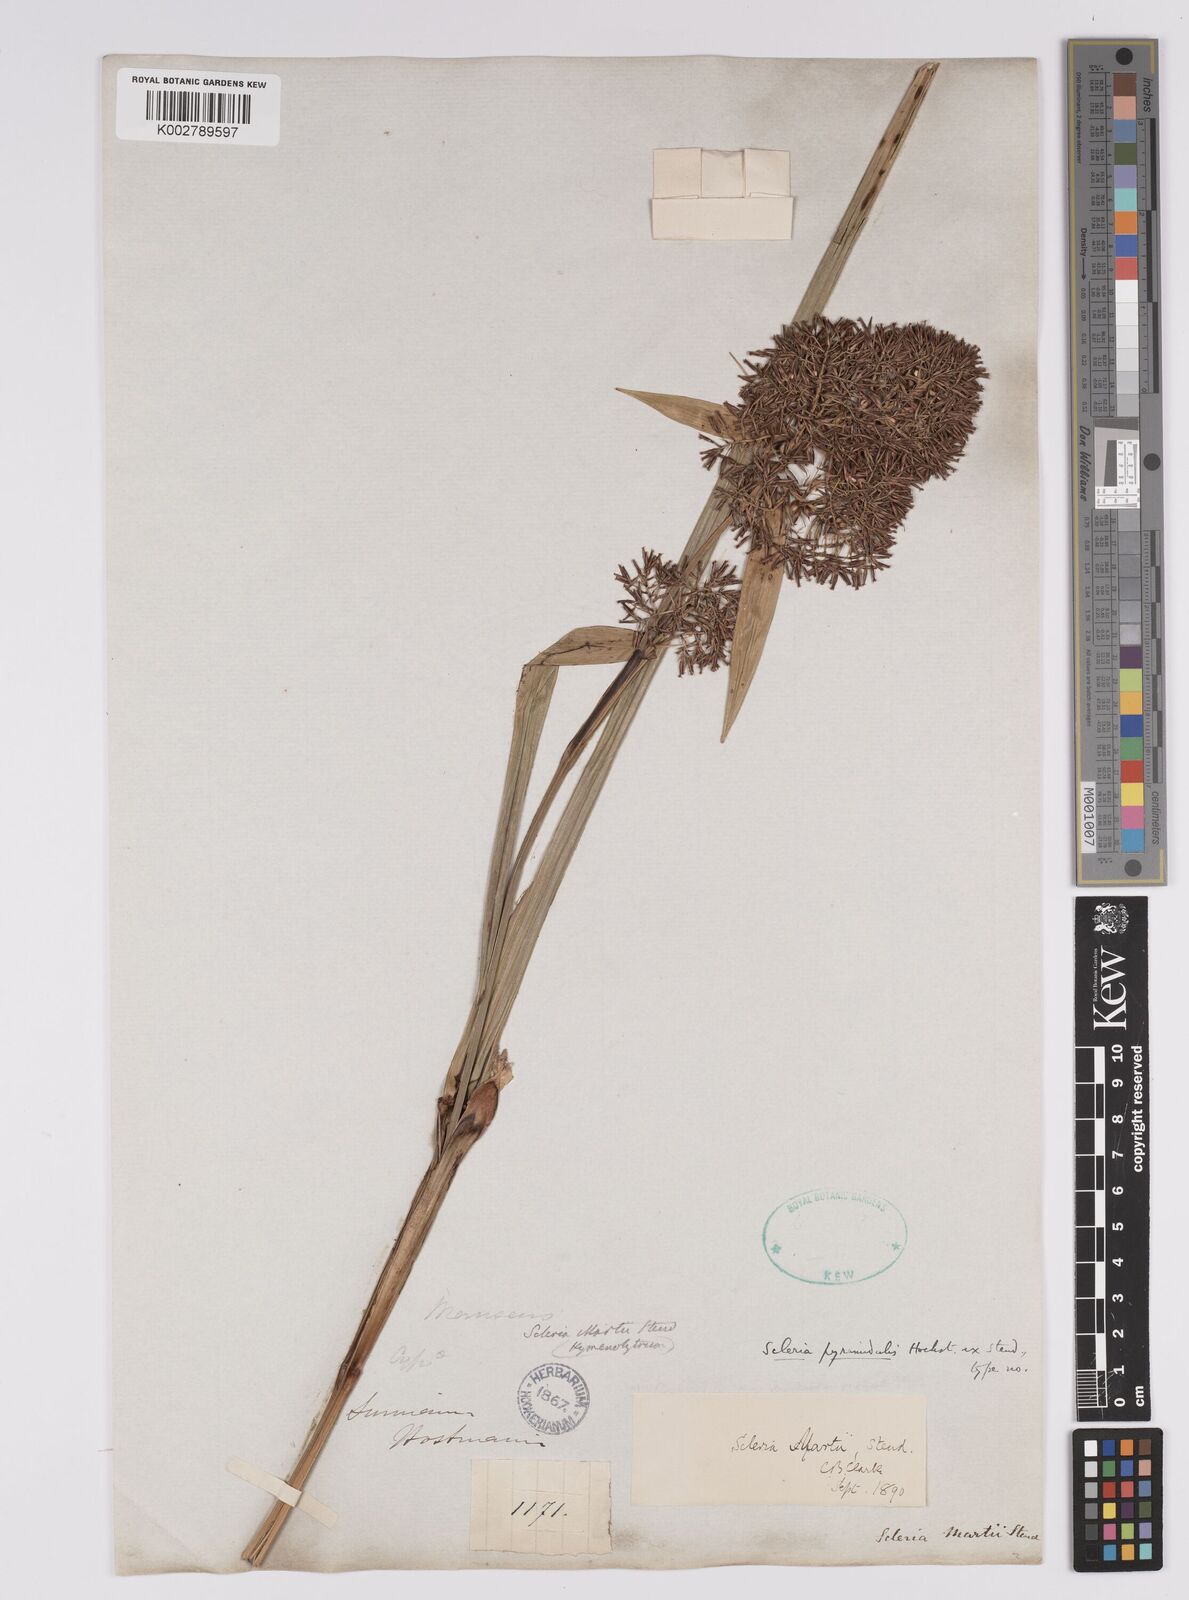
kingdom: Plantae
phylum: Tracheophyta
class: Liliopsida
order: Poales
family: Cyperaceae
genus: Scleria
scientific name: Scleria martii
